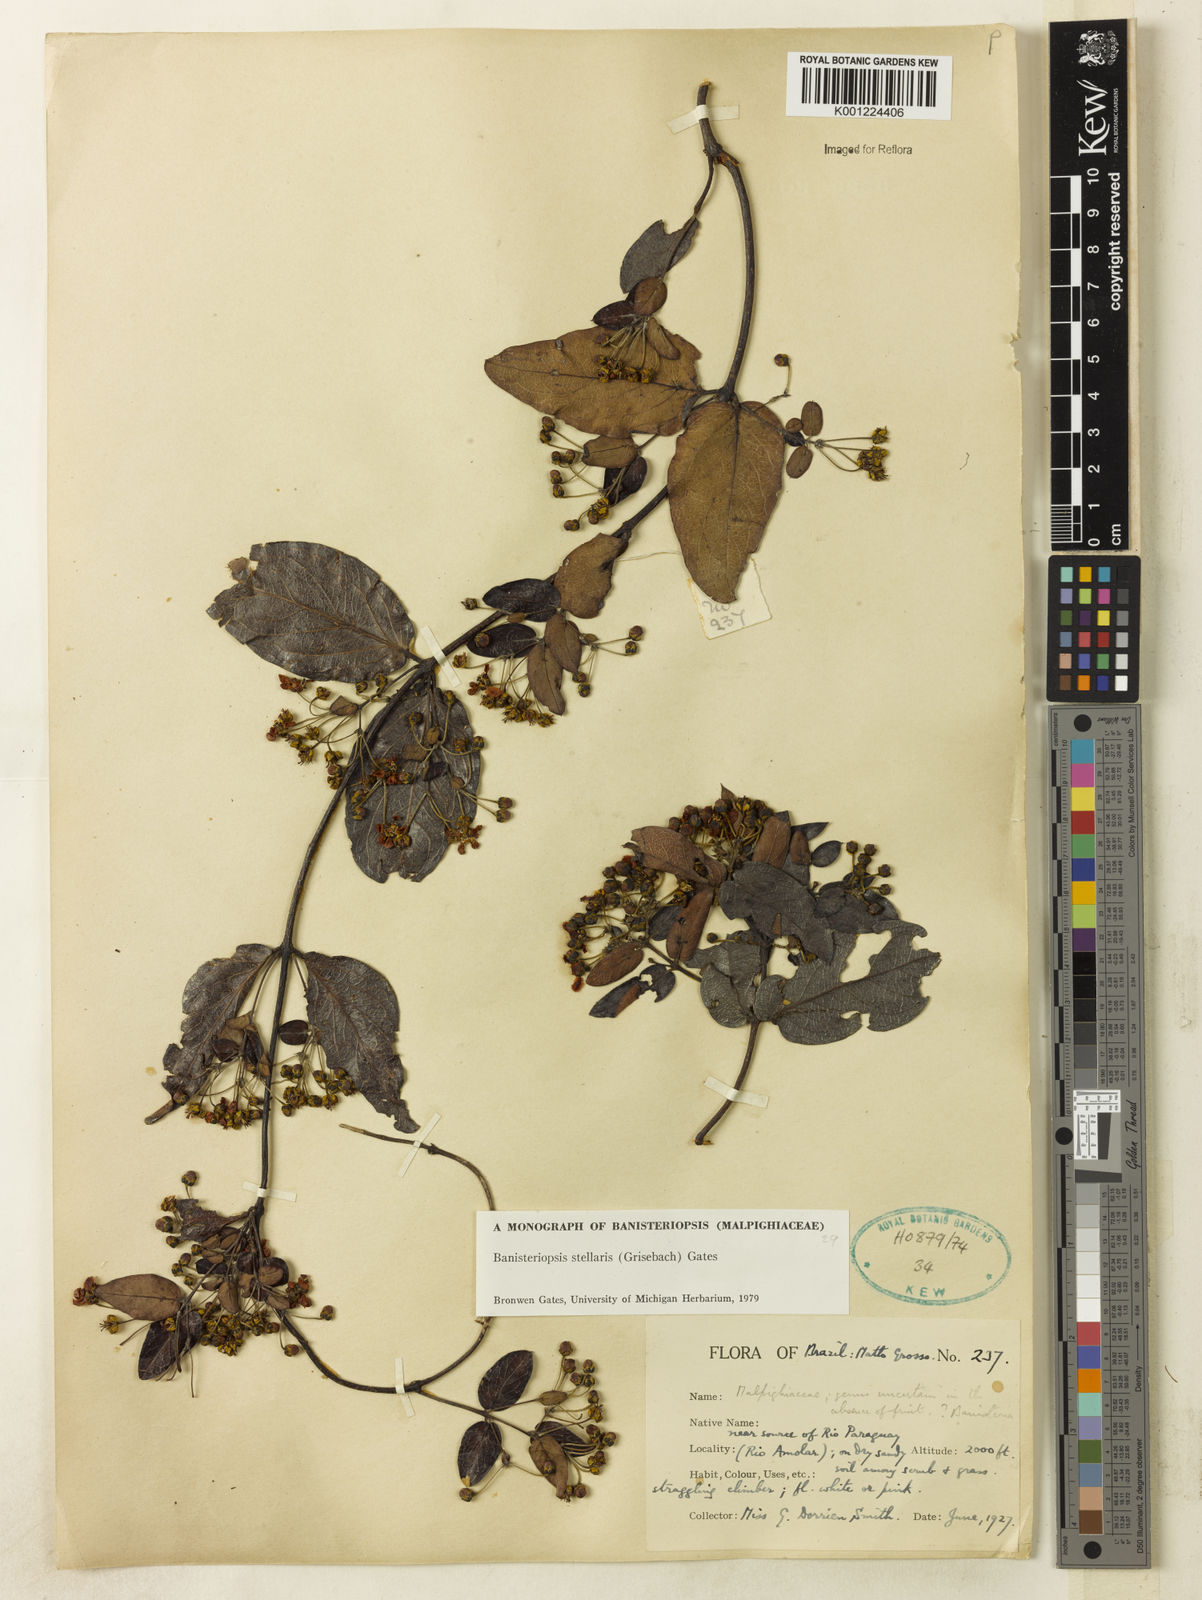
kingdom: Plantae
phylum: Tracheophyta
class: Magnoliopsida
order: Malpighiales
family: Malpighiaceae
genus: Banisteriopsis
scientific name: Banisteriopsis stellaris
